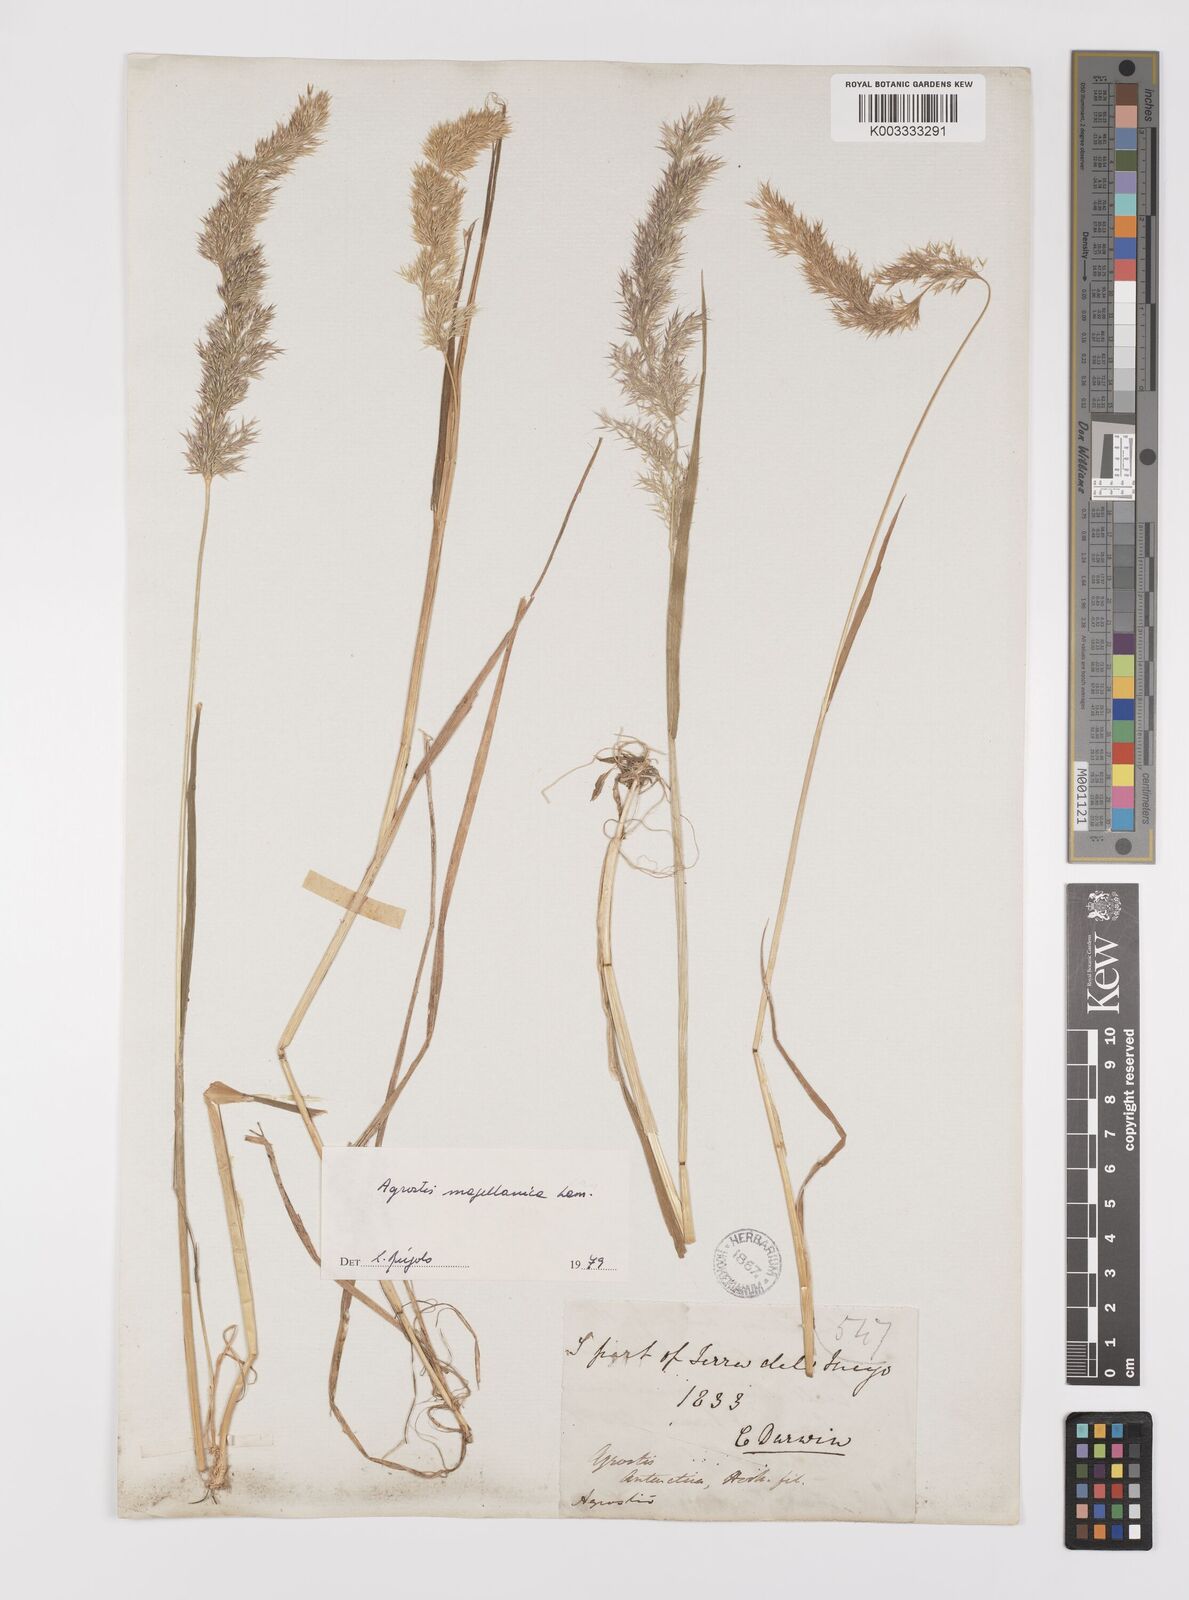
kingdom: Plantae
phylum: Tracheophyta
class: Liliopsida
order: Poales
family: Poaceae
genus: Polypogon
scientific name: Polypogon magellanicus
